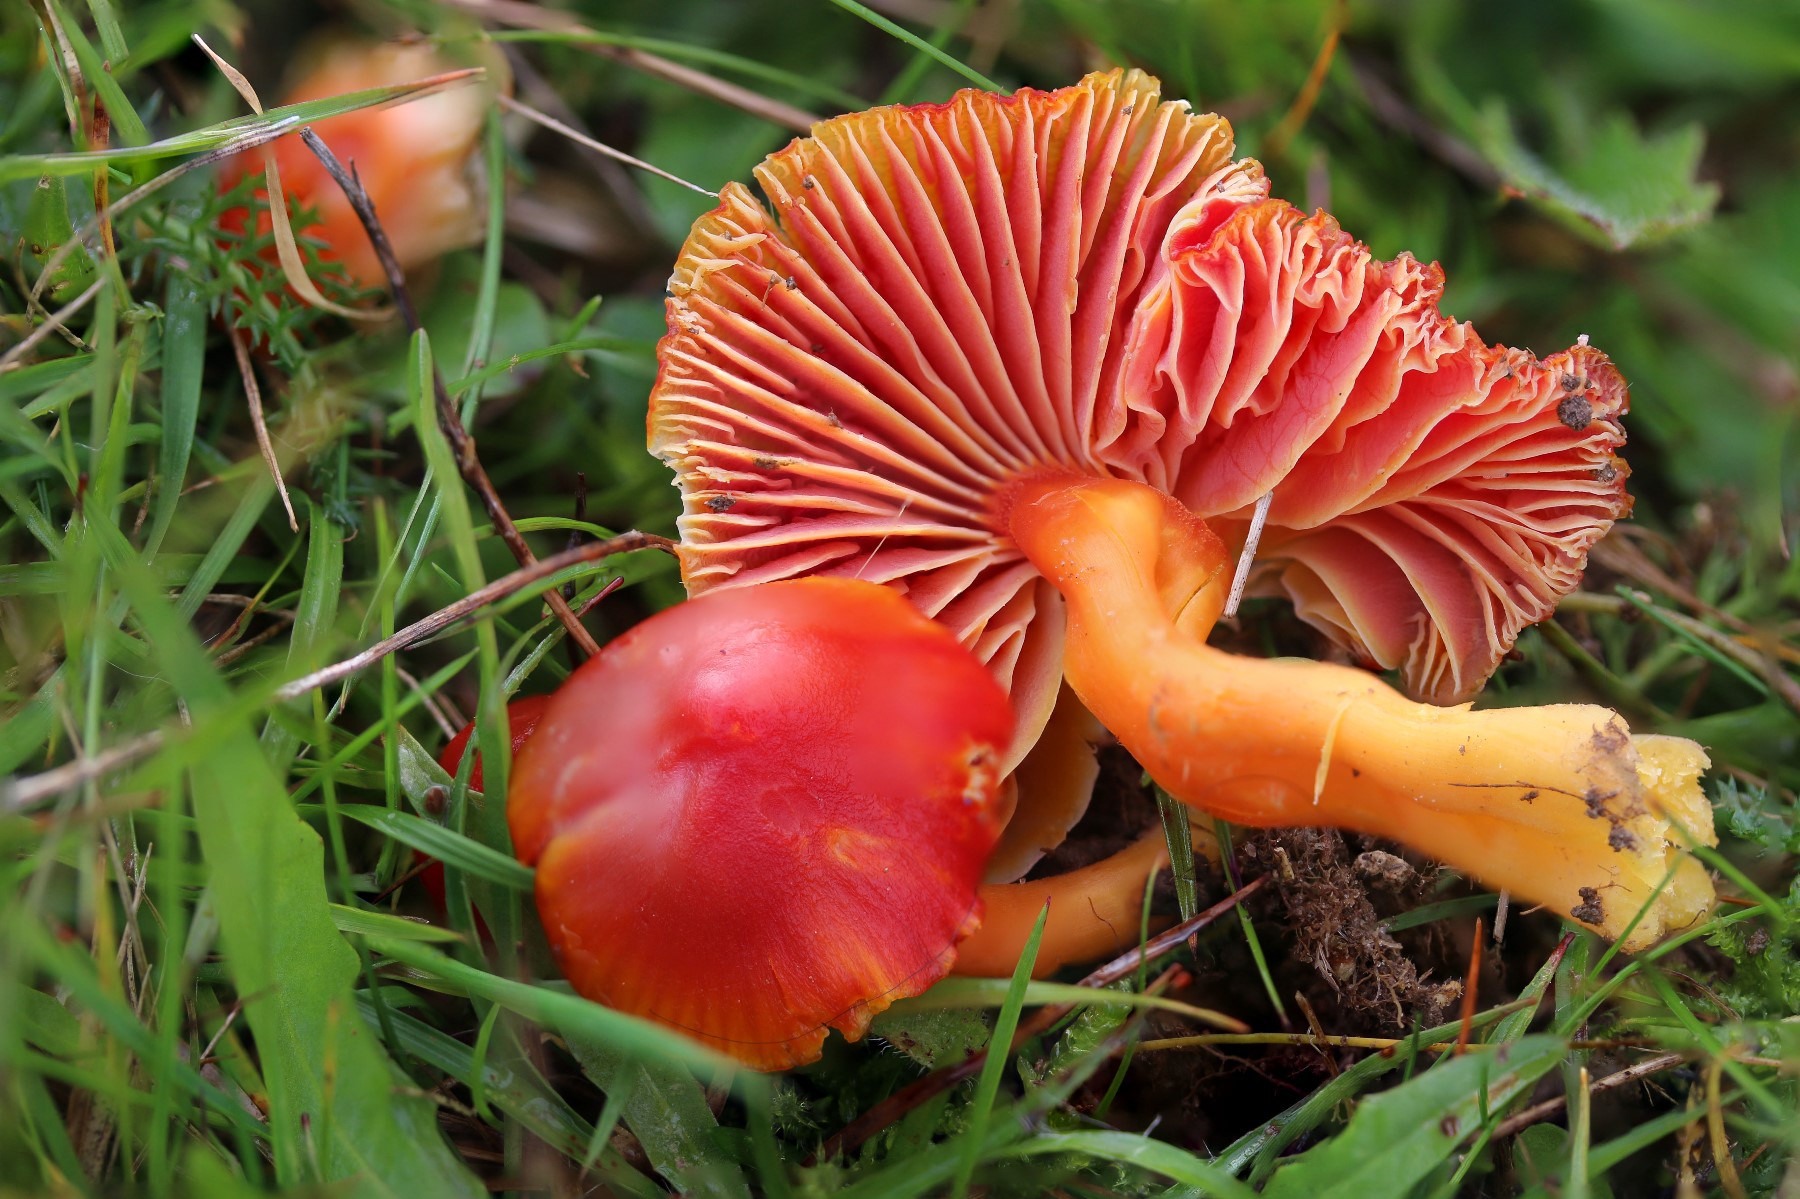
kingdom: Fungi
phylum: Basidiomycota
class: Agaricomycetes
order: Agaricales
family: Hygrophoraceae
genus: Hygrocybe
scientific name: Hygrocybe splendidissima
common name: knaldrød vokshat
